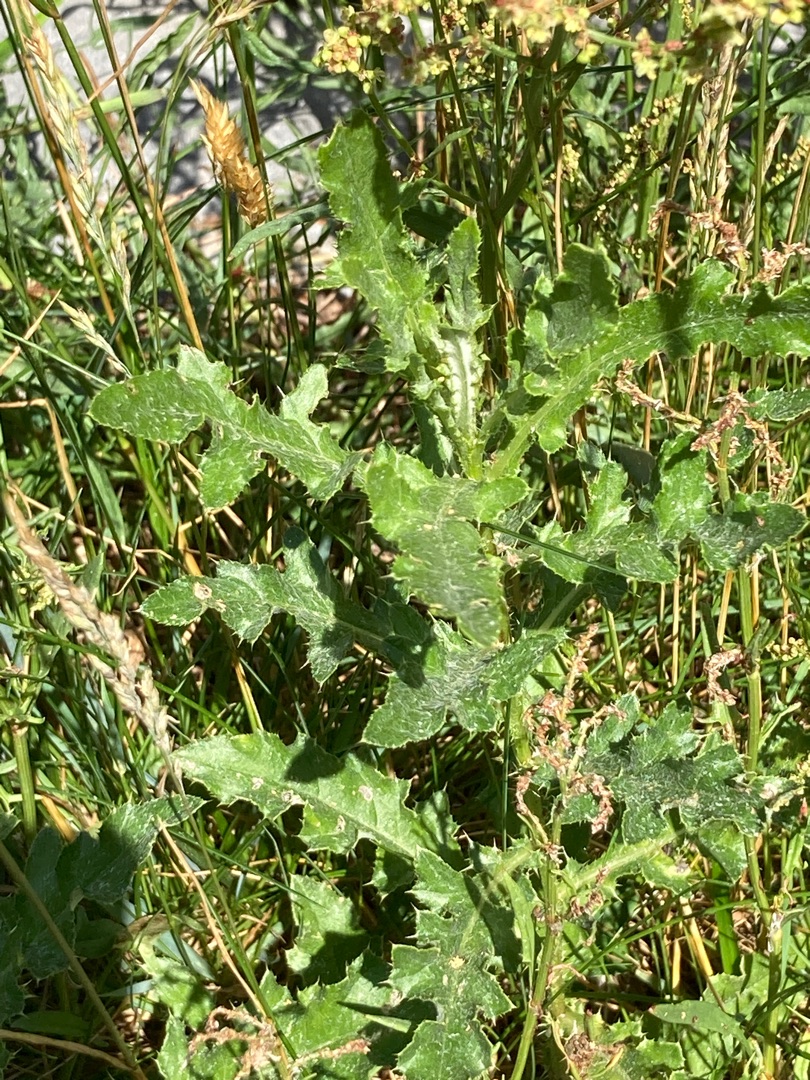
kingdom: Plantae
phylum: Tracheophyta
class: Magnoliopsida
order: Asterales
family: Asteraceae
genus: Cirsium
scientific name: Cirsium arvense
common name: Ager-tidsel
